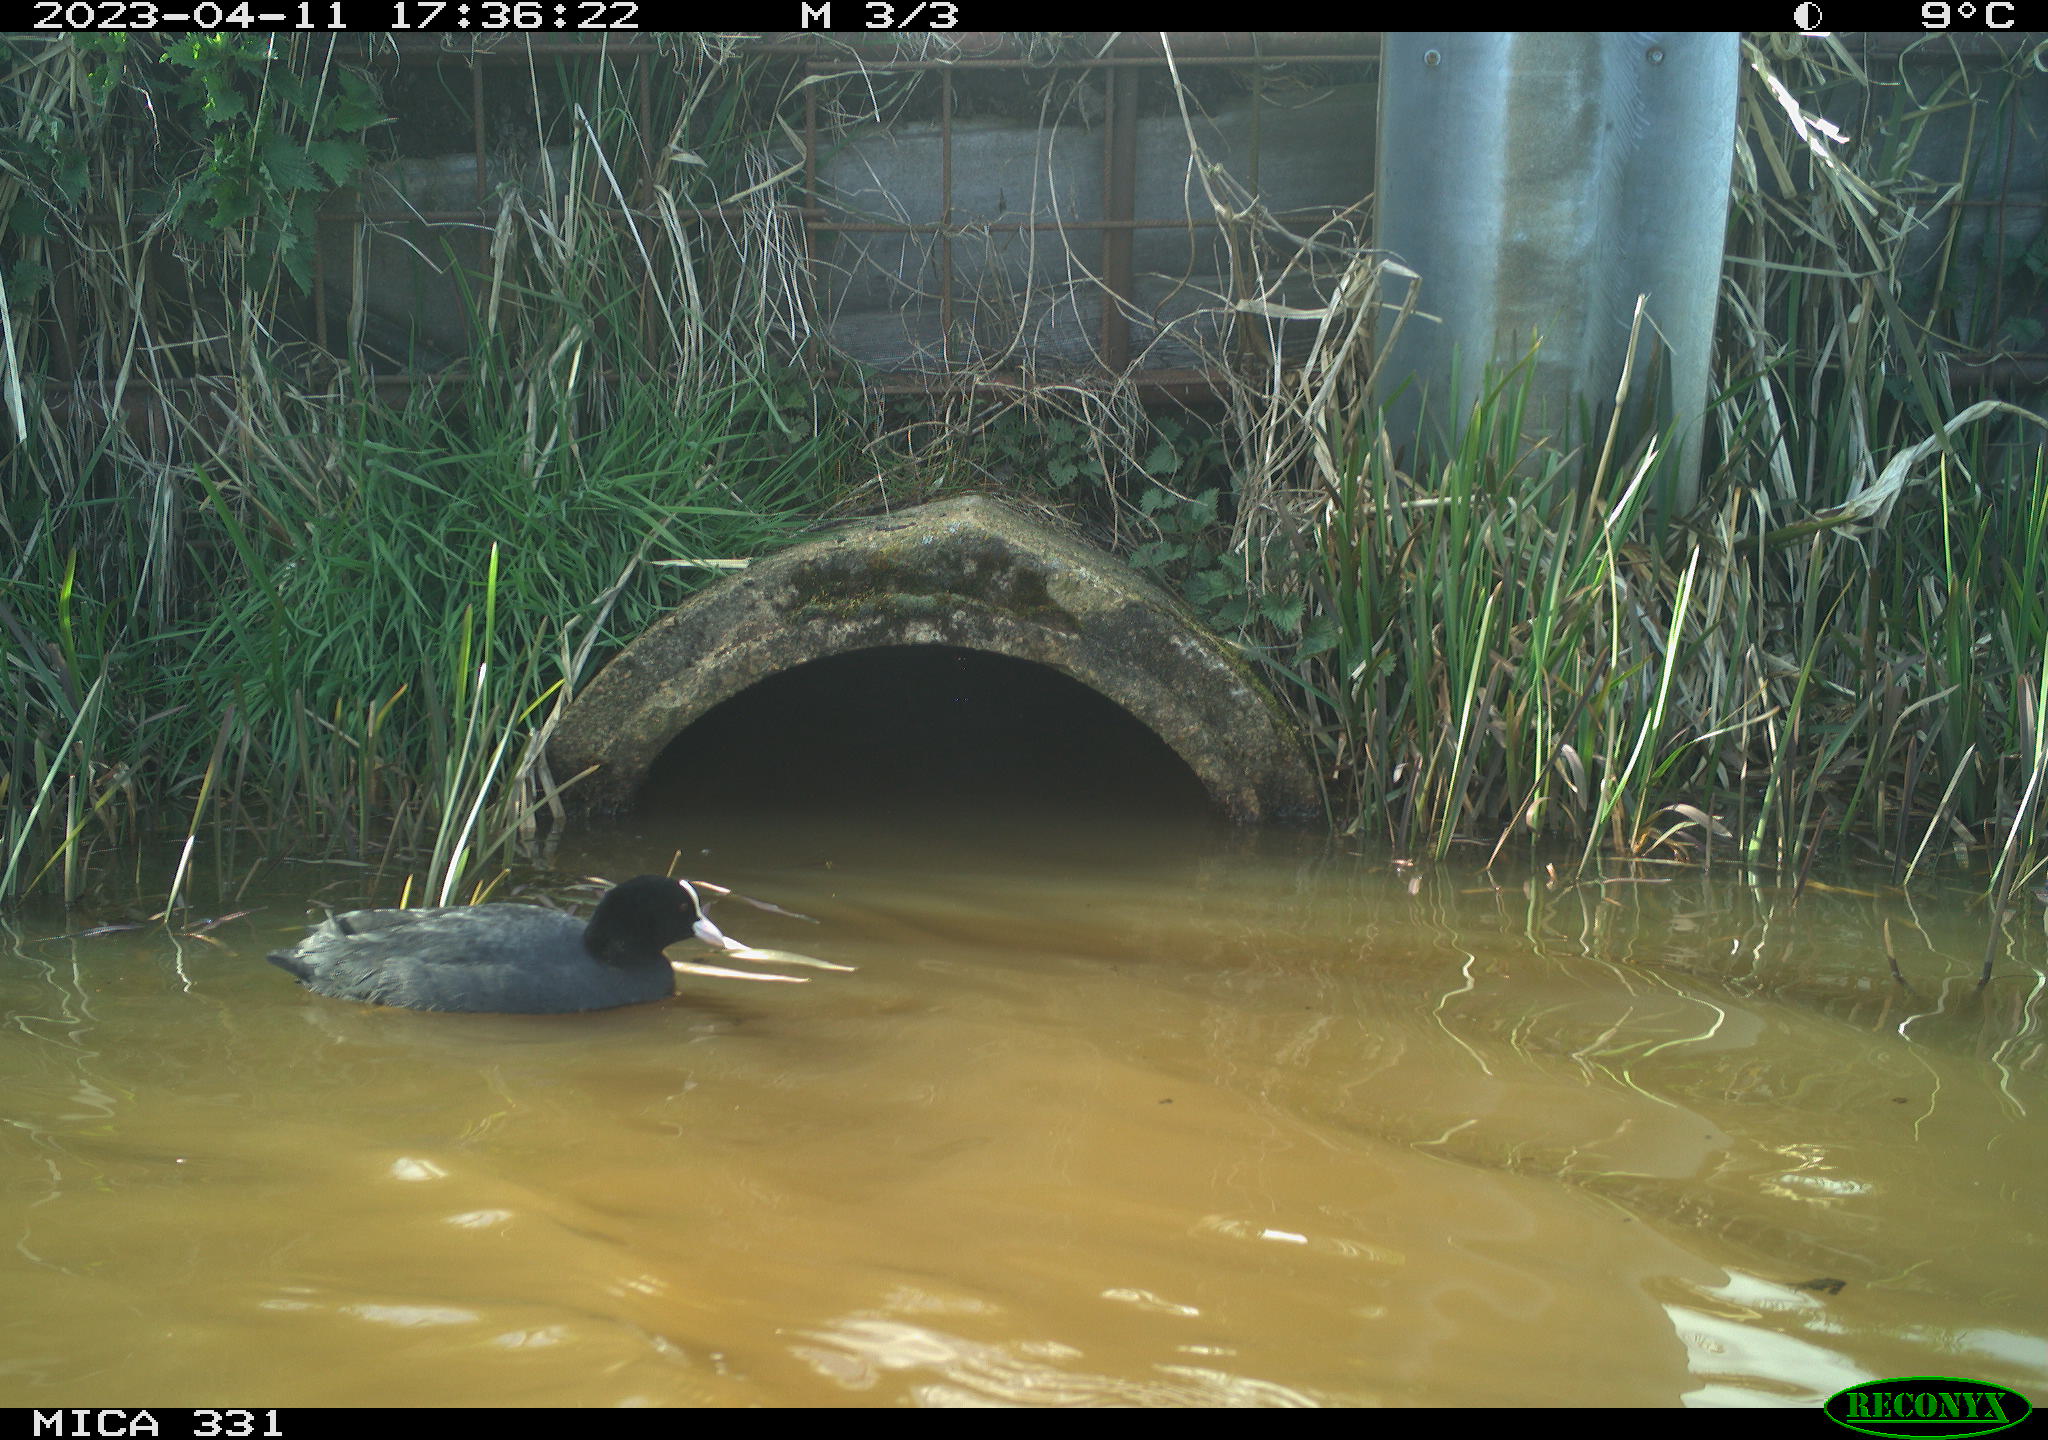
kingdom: Animalia
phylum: Chordata
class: Aves
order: Gruiformes
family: Rallidae
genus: Fulica
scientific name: Fulica atra
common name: Eurasian coot
